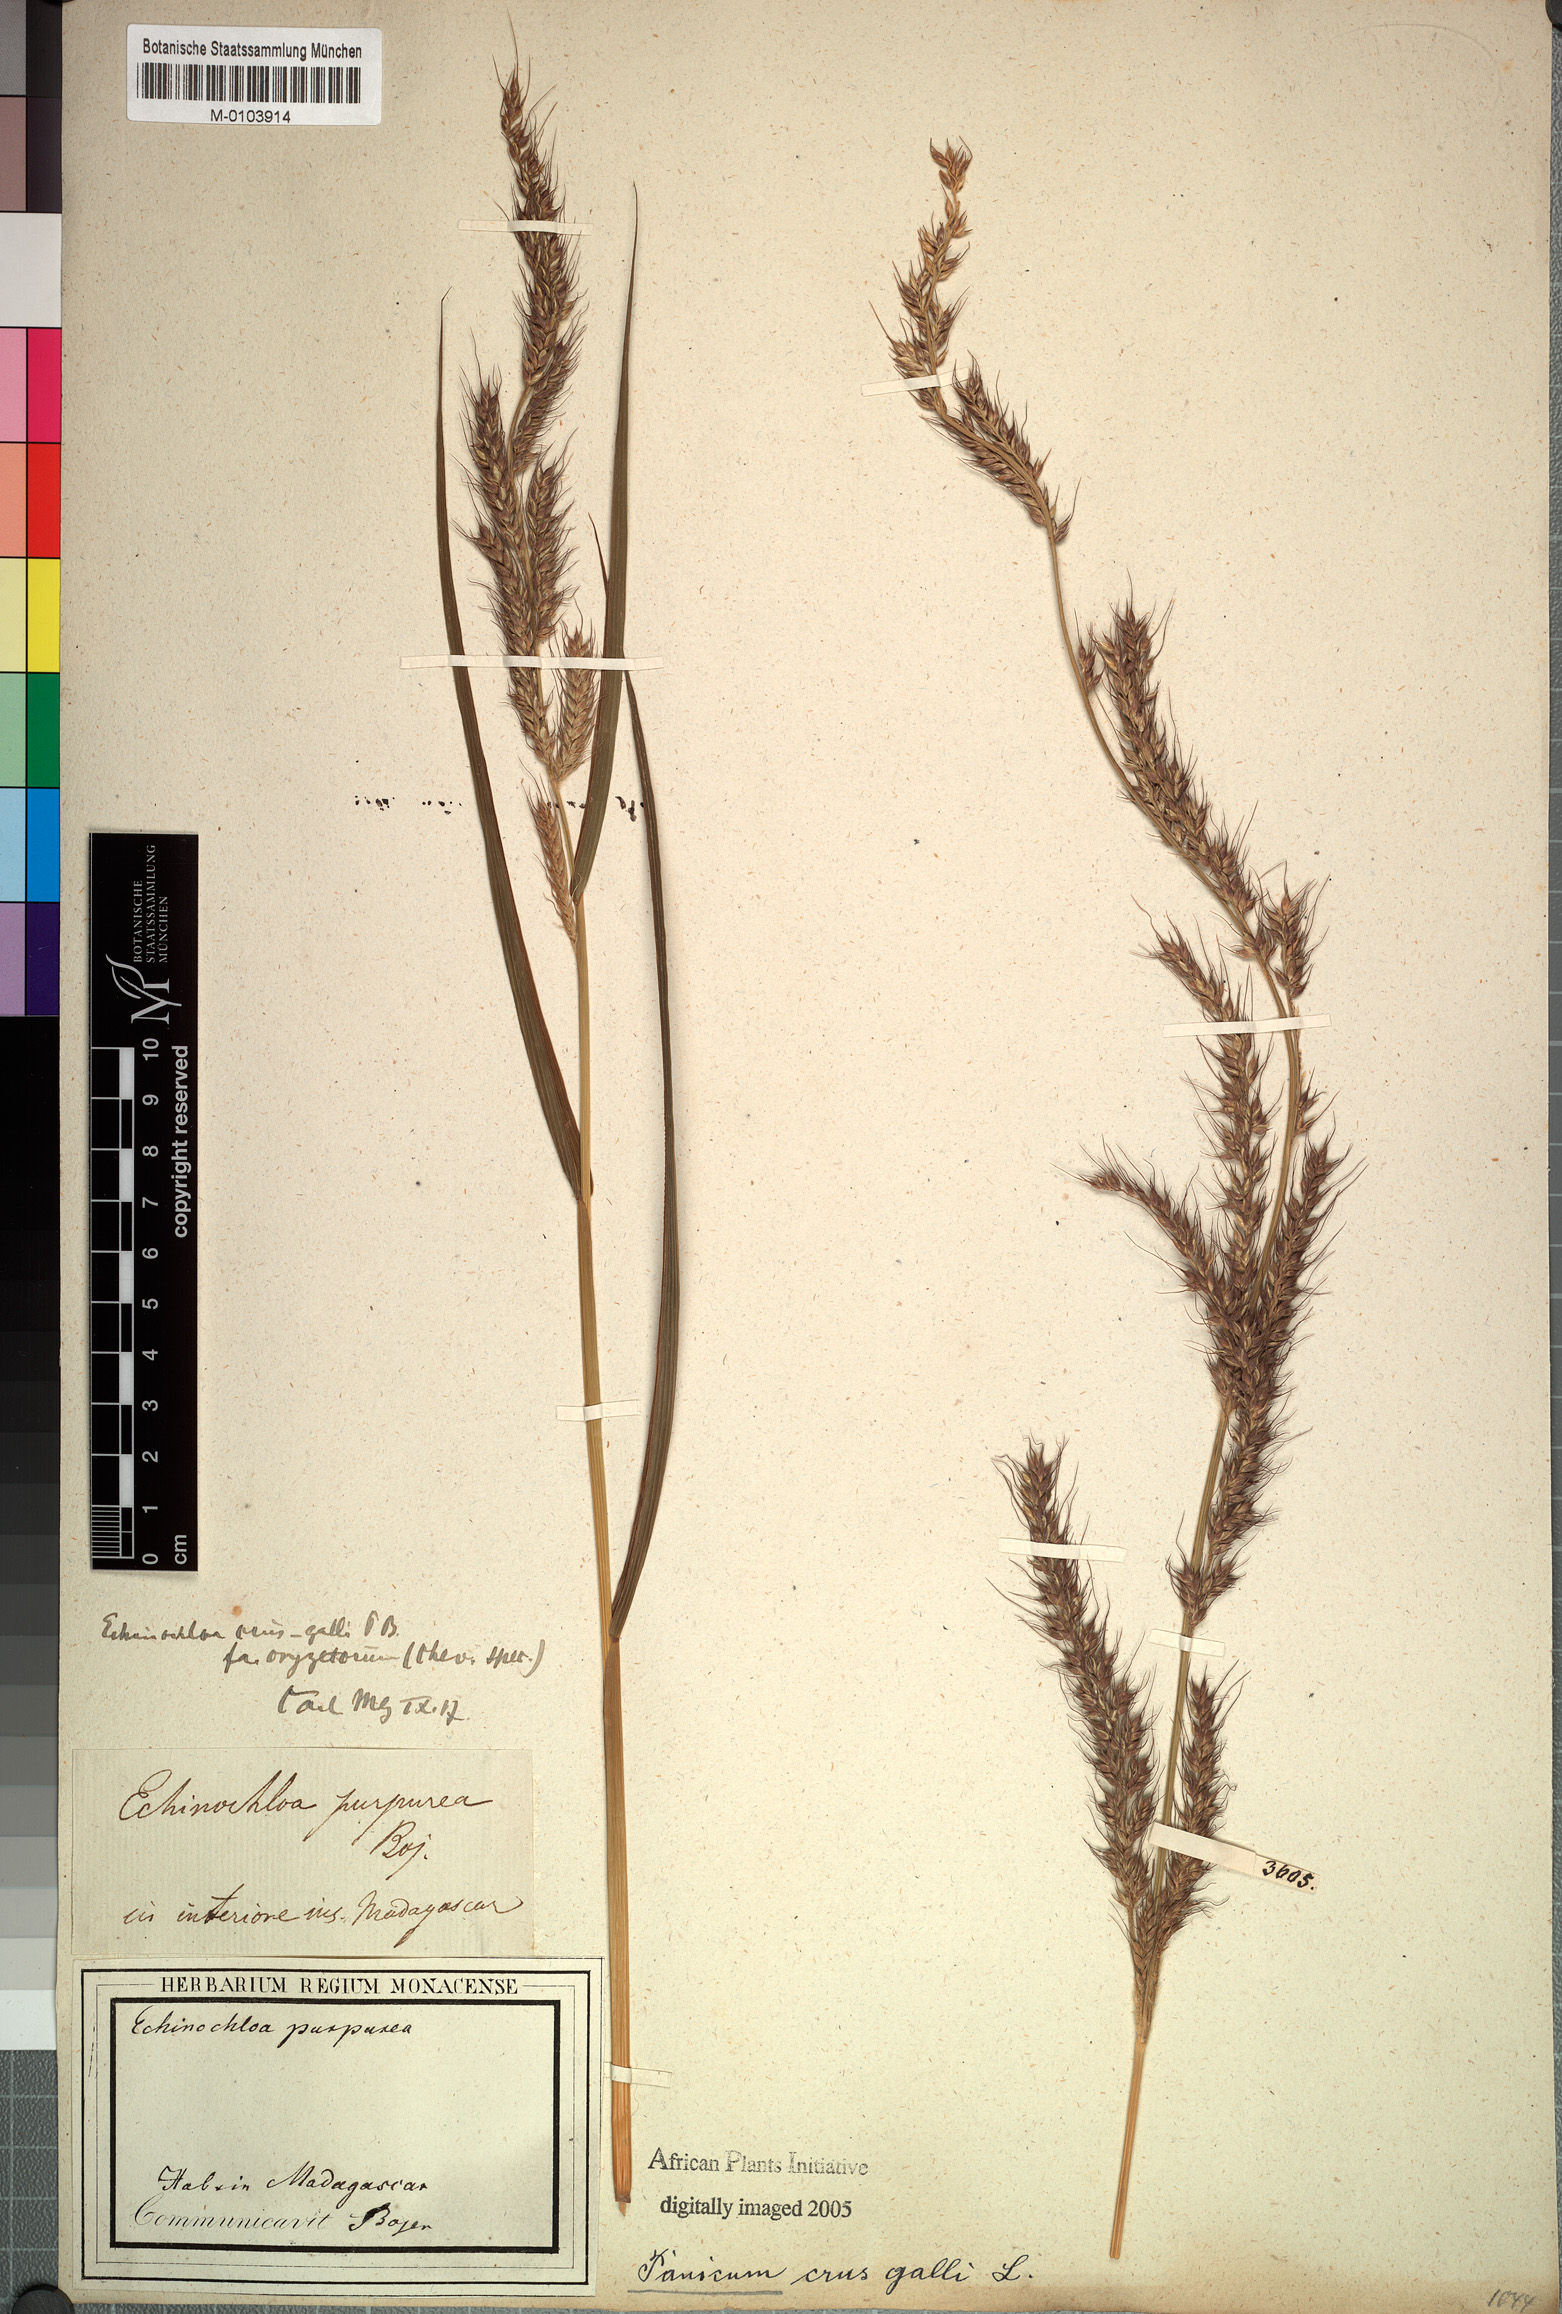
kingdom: Plantae
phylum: Tracheophyta
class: Liliopsida
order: Poales
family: Poaceae
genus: Echinochloa
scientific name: Echinochloa crus-galli
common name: Cockspur
